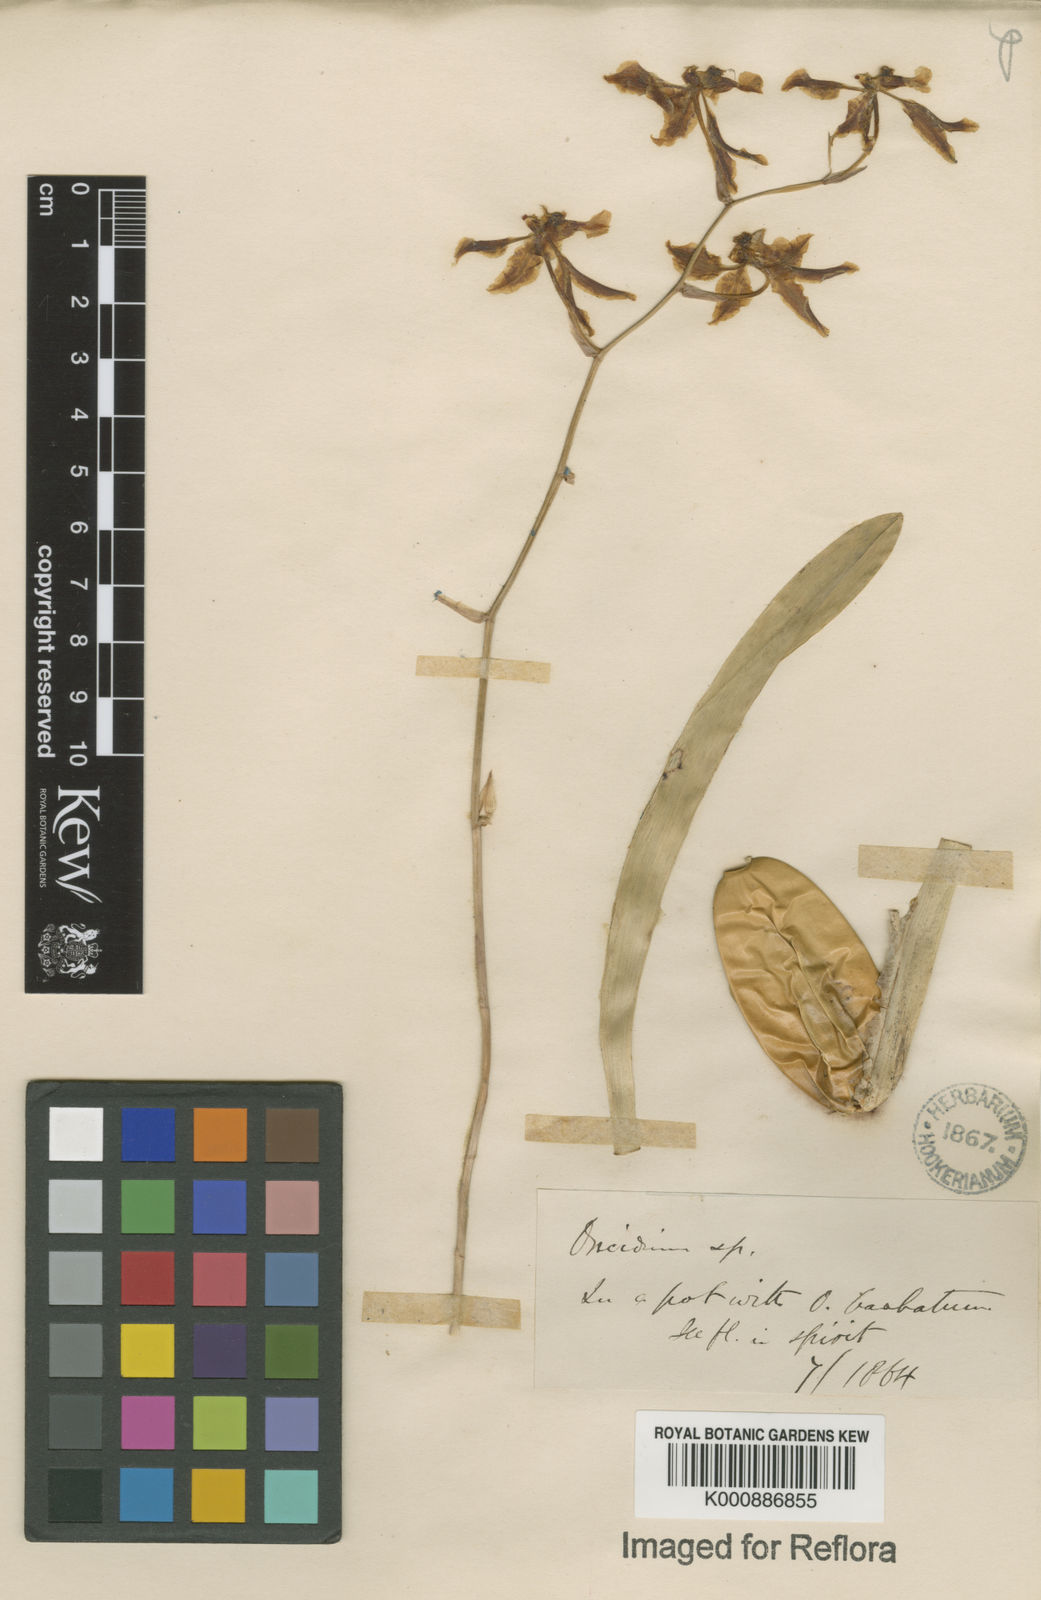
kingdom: Plantae
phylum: Tracheophyta
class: Liliopsida
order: Asparagales
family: Orchidaceae
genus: Gomesa
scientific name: Gomesa ciliata
